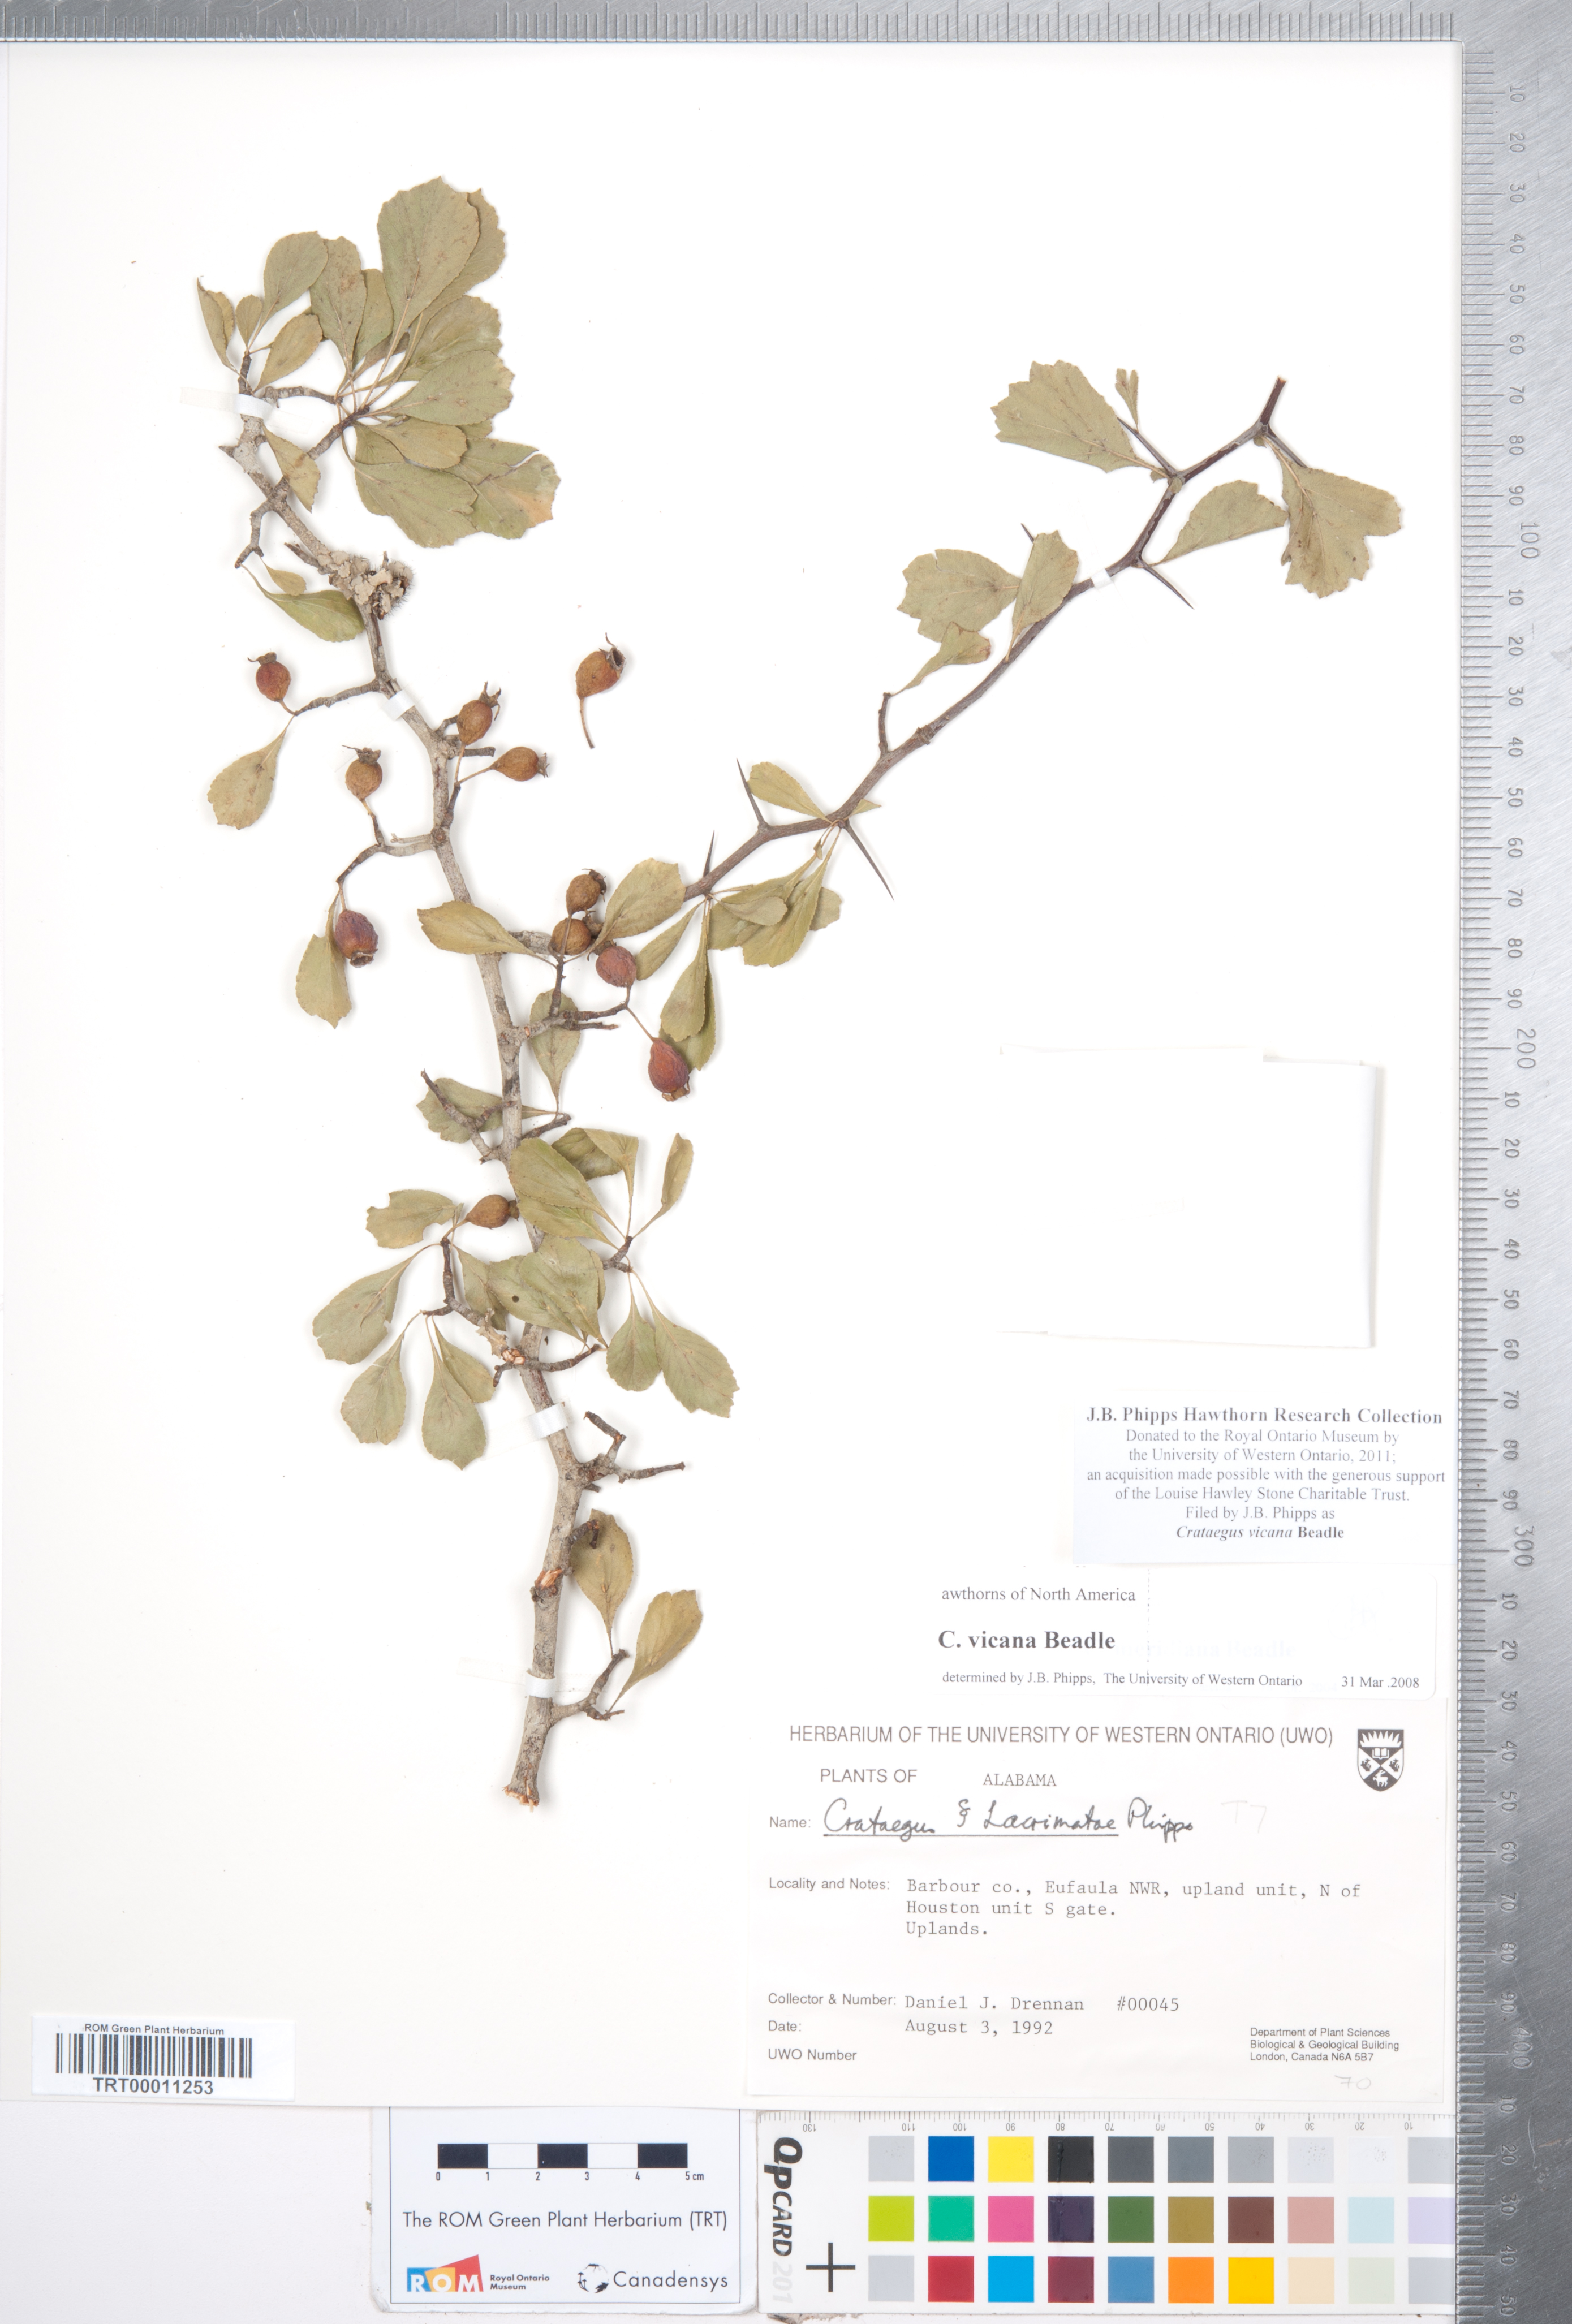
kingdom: Plantae
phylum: Tracheophyta
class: Magnoliopsida
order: Rosales
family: Rosaceae
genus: Crataegus
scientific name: Crataegus lassa
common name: Florida hawthorn
